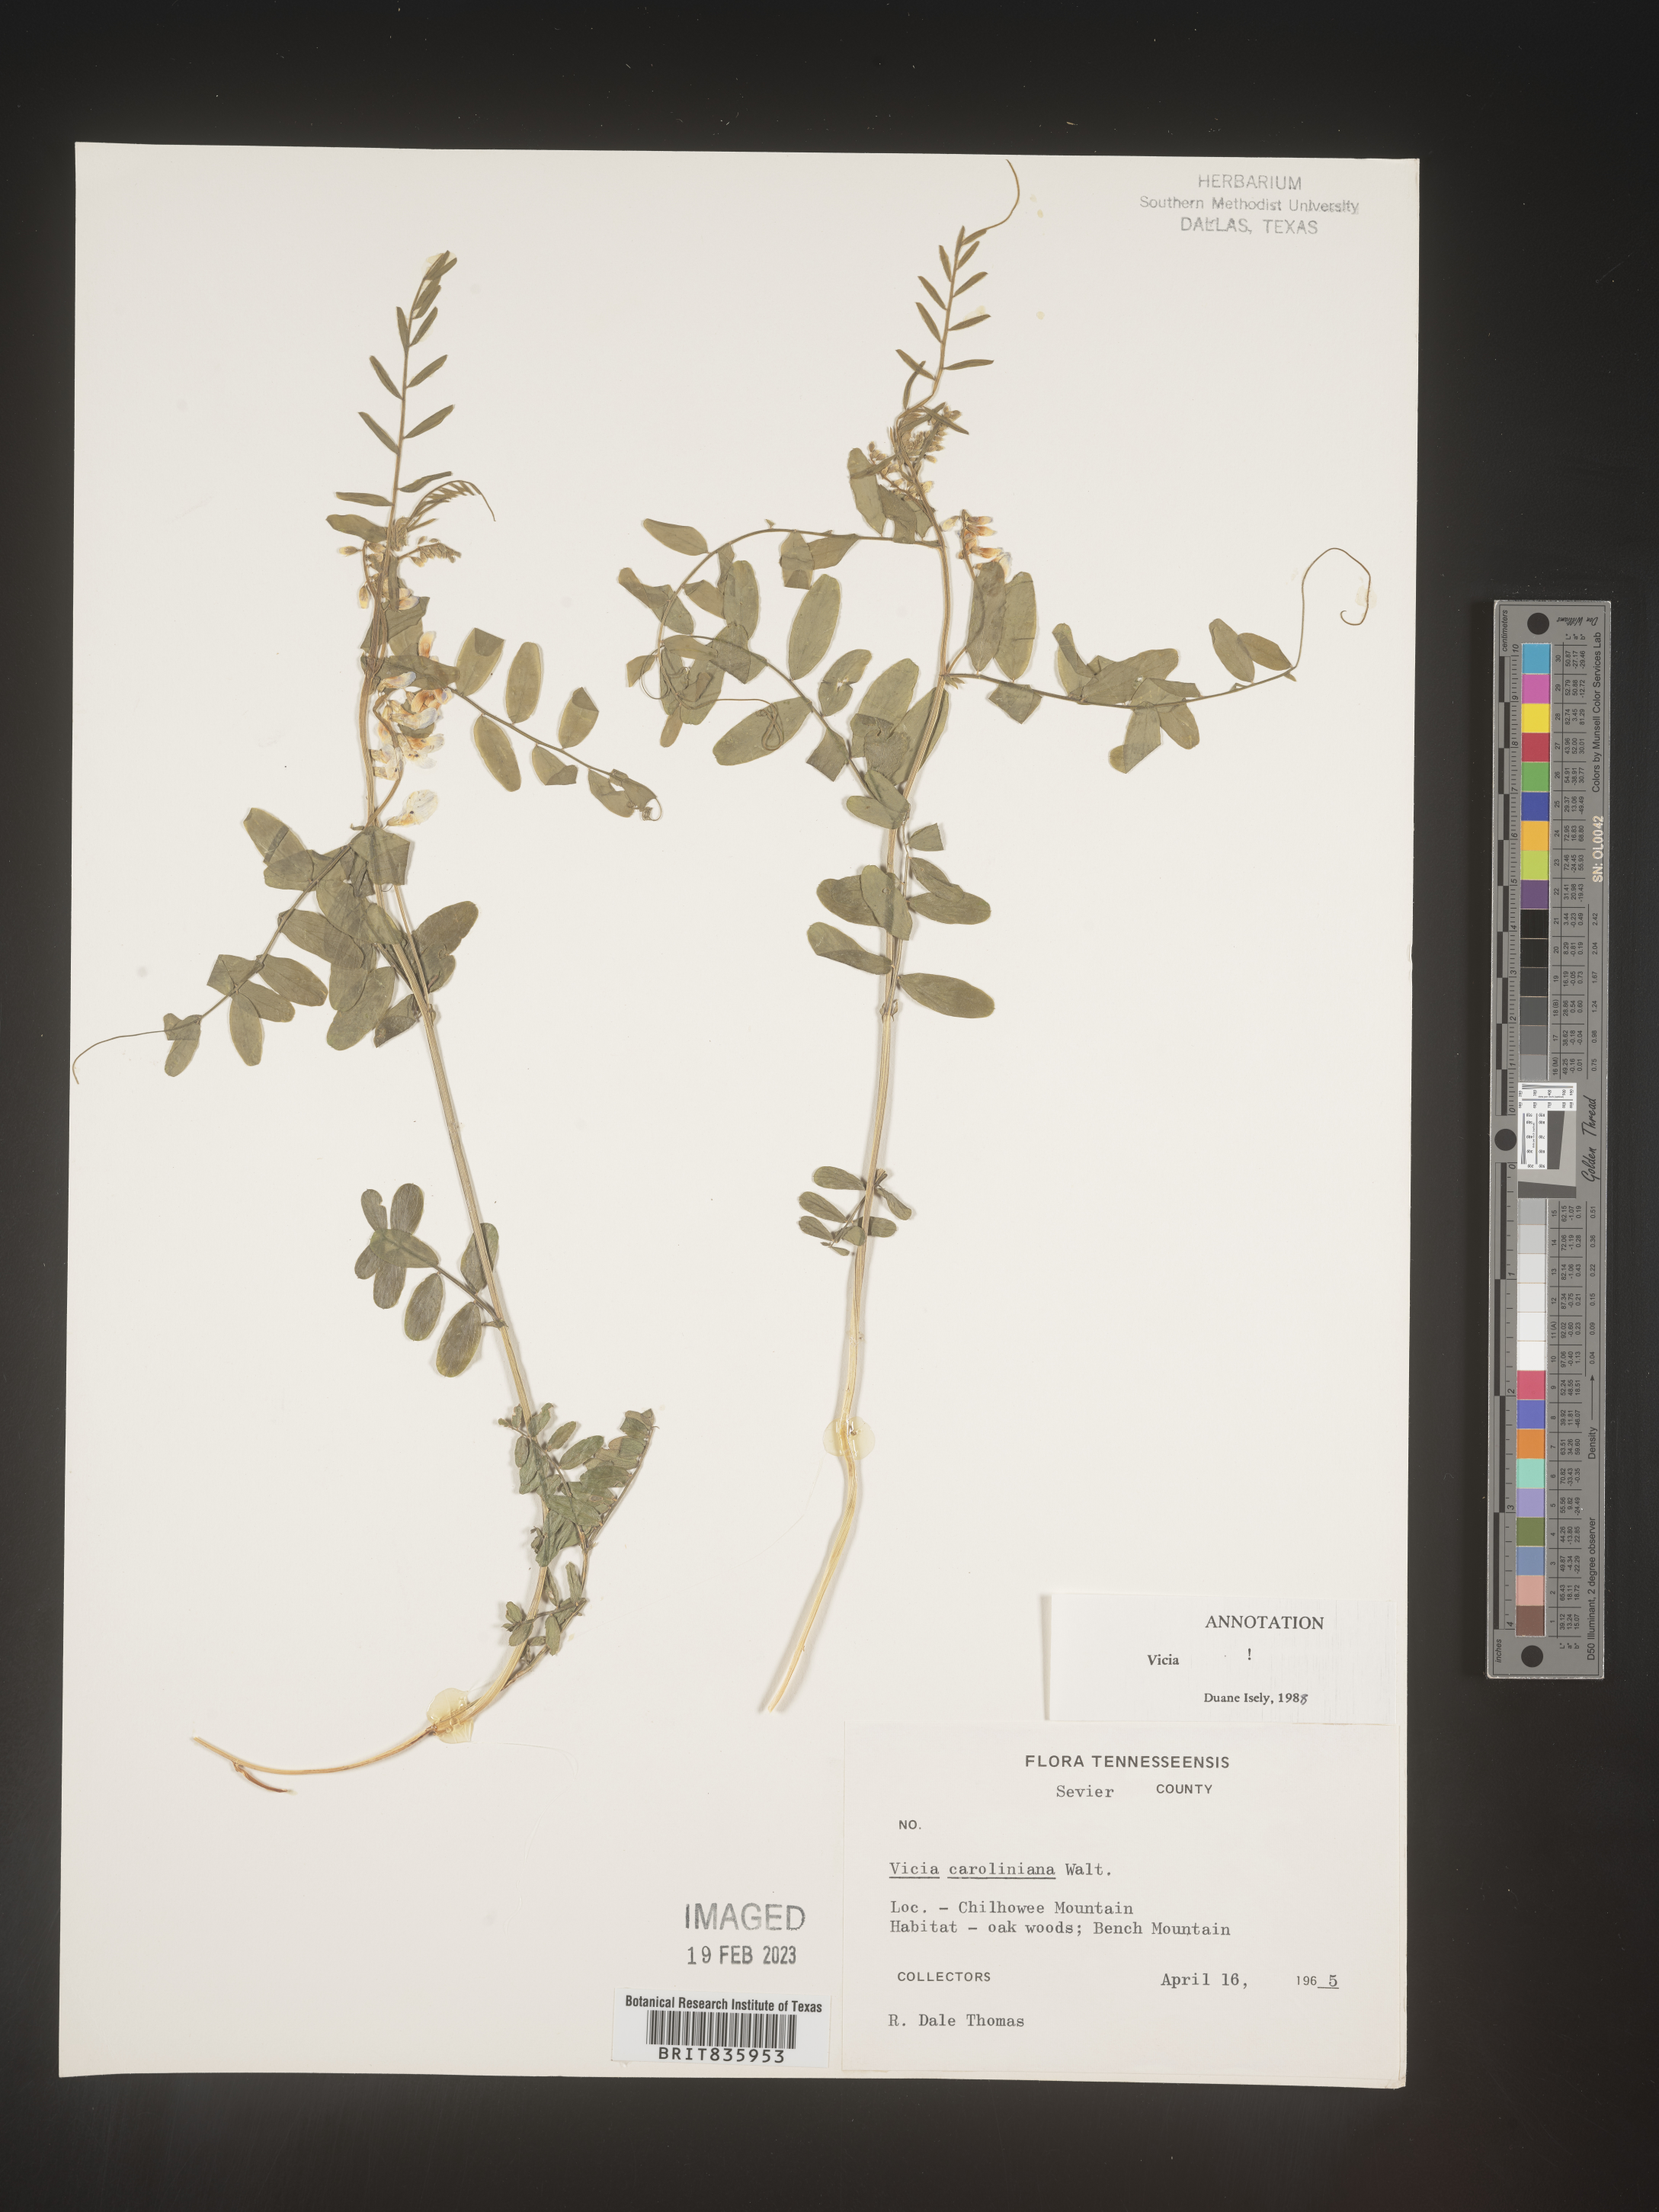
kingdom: Plantae
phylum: Tracheophyta
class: Magnoliopsida
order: Fabales
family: Fabaceae
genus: Vicia
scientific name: Vicia caroliniana
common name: Carolina vetch
